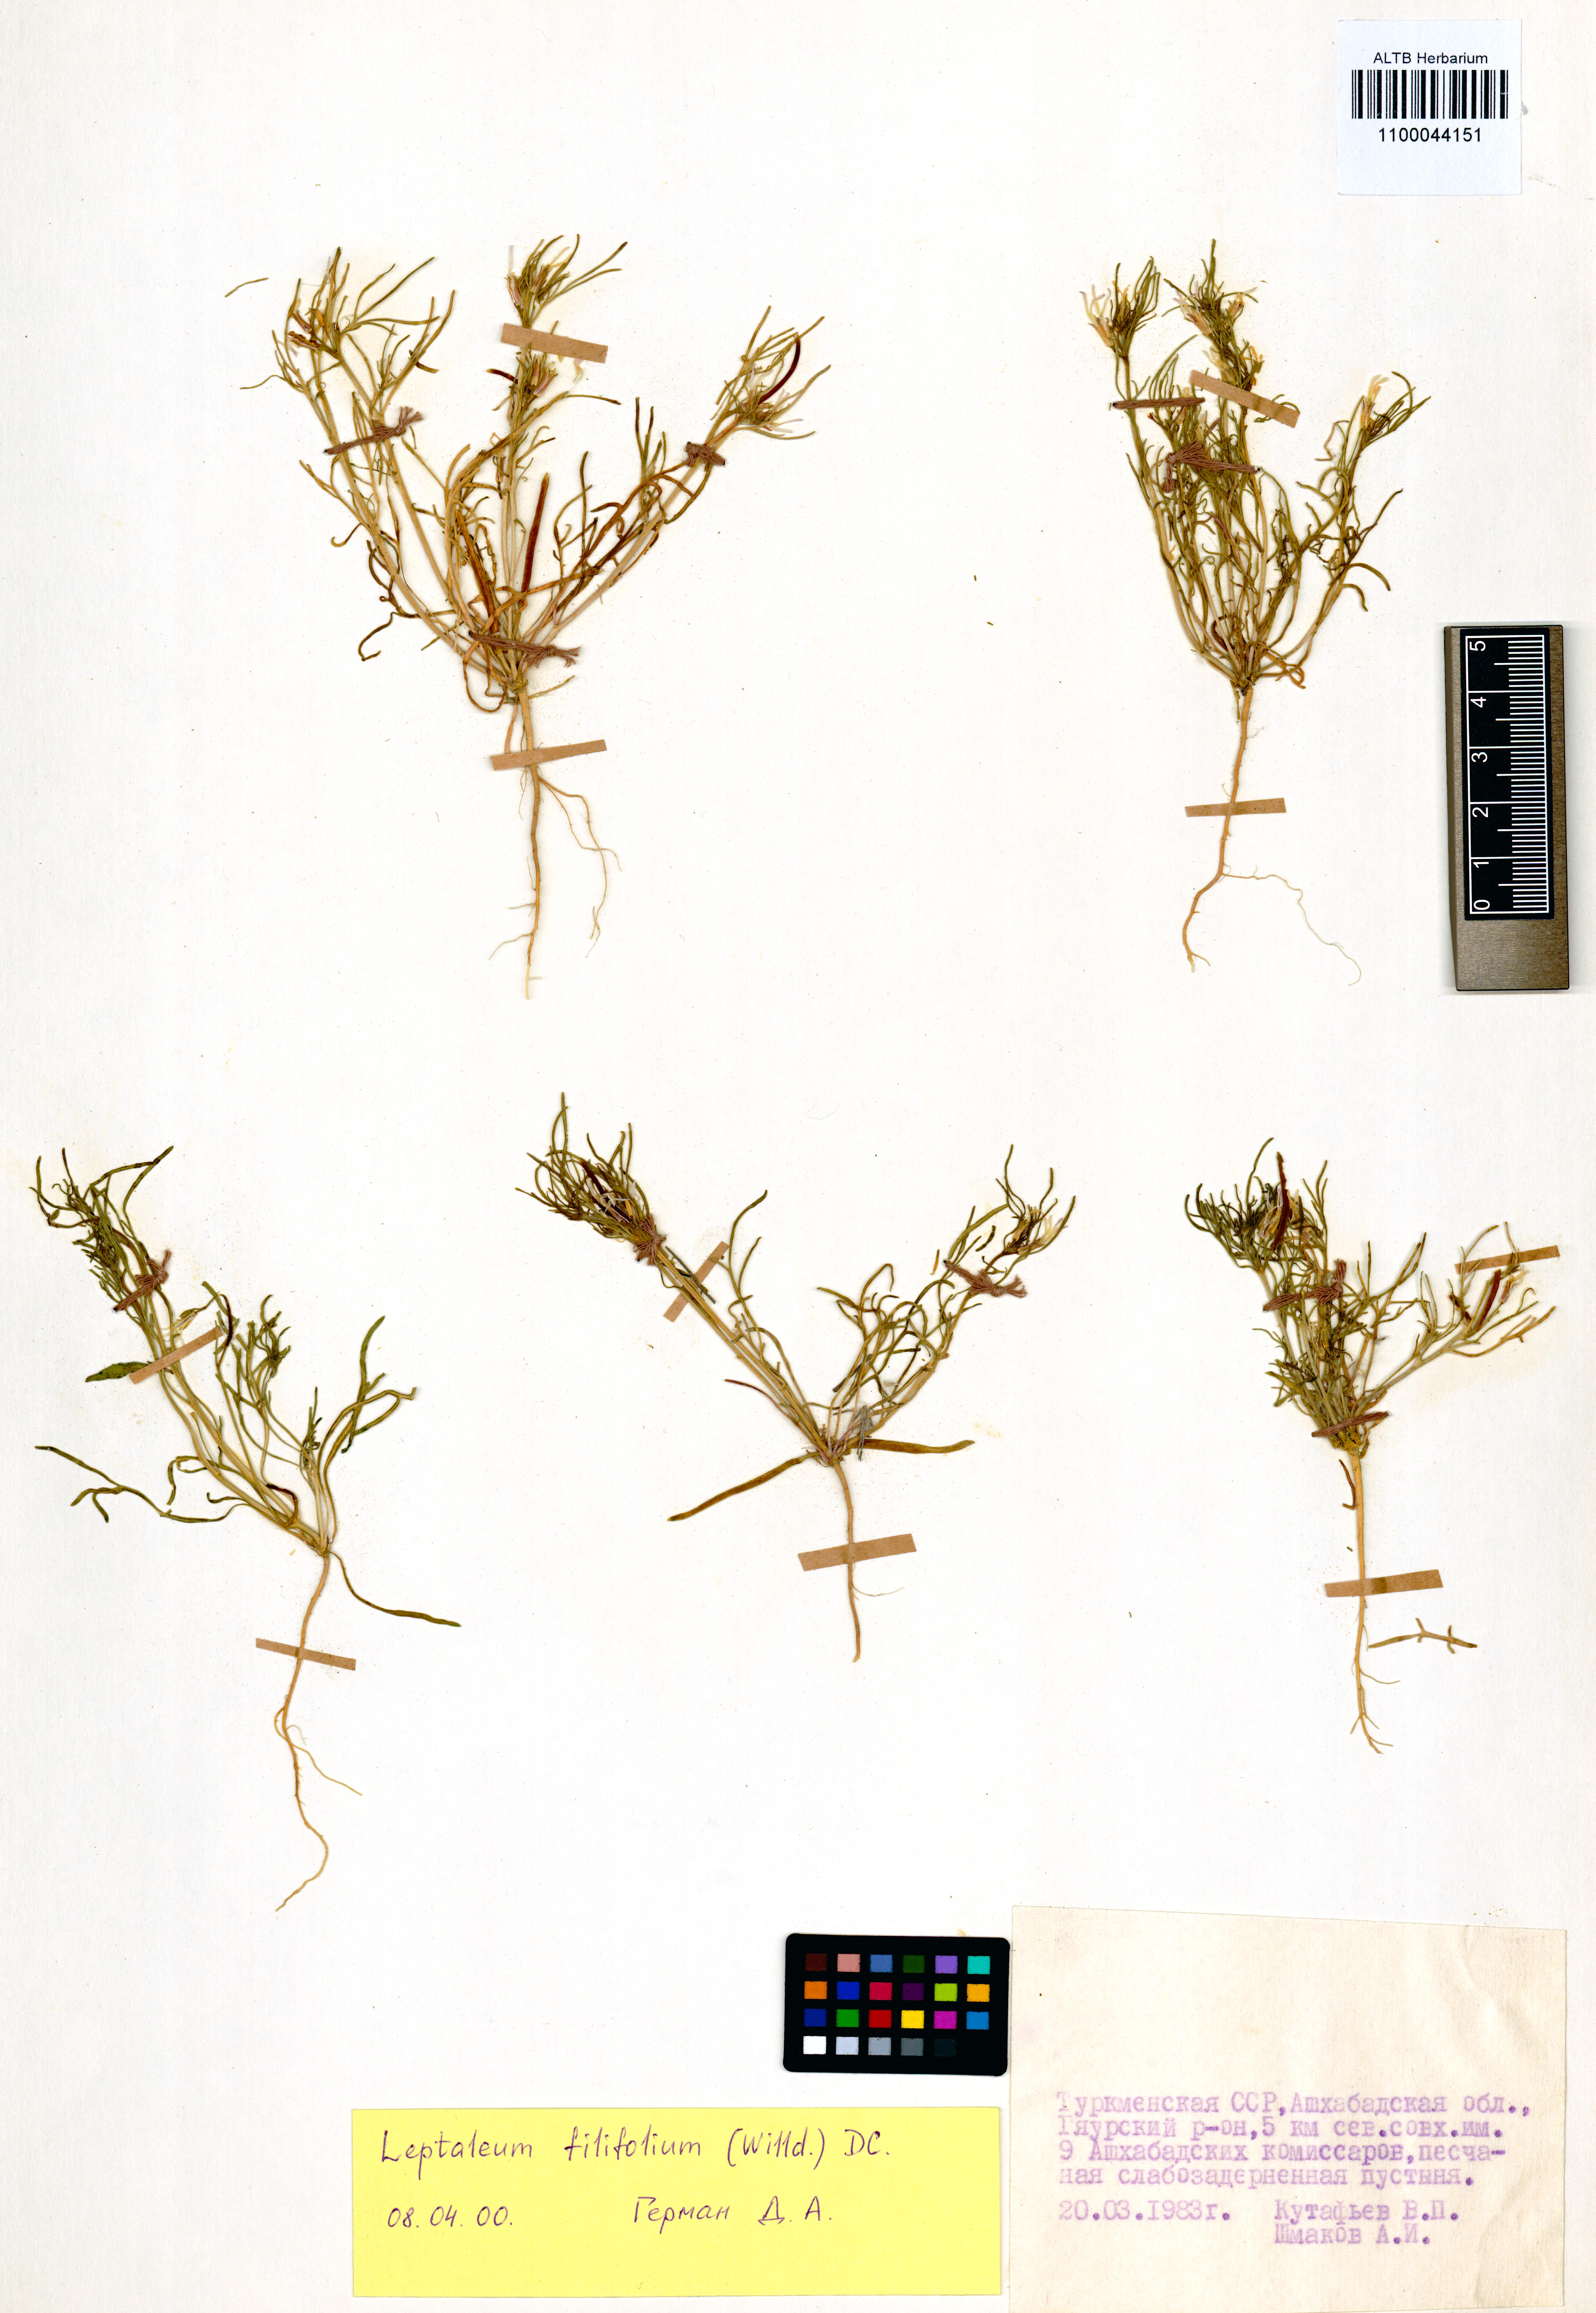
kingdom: Plantae
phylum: Tracheophyta
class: Magnoliopsida
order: Brassicales
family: Brassicaceae
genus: Leptaleum
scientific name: Leptaleum filifolium
